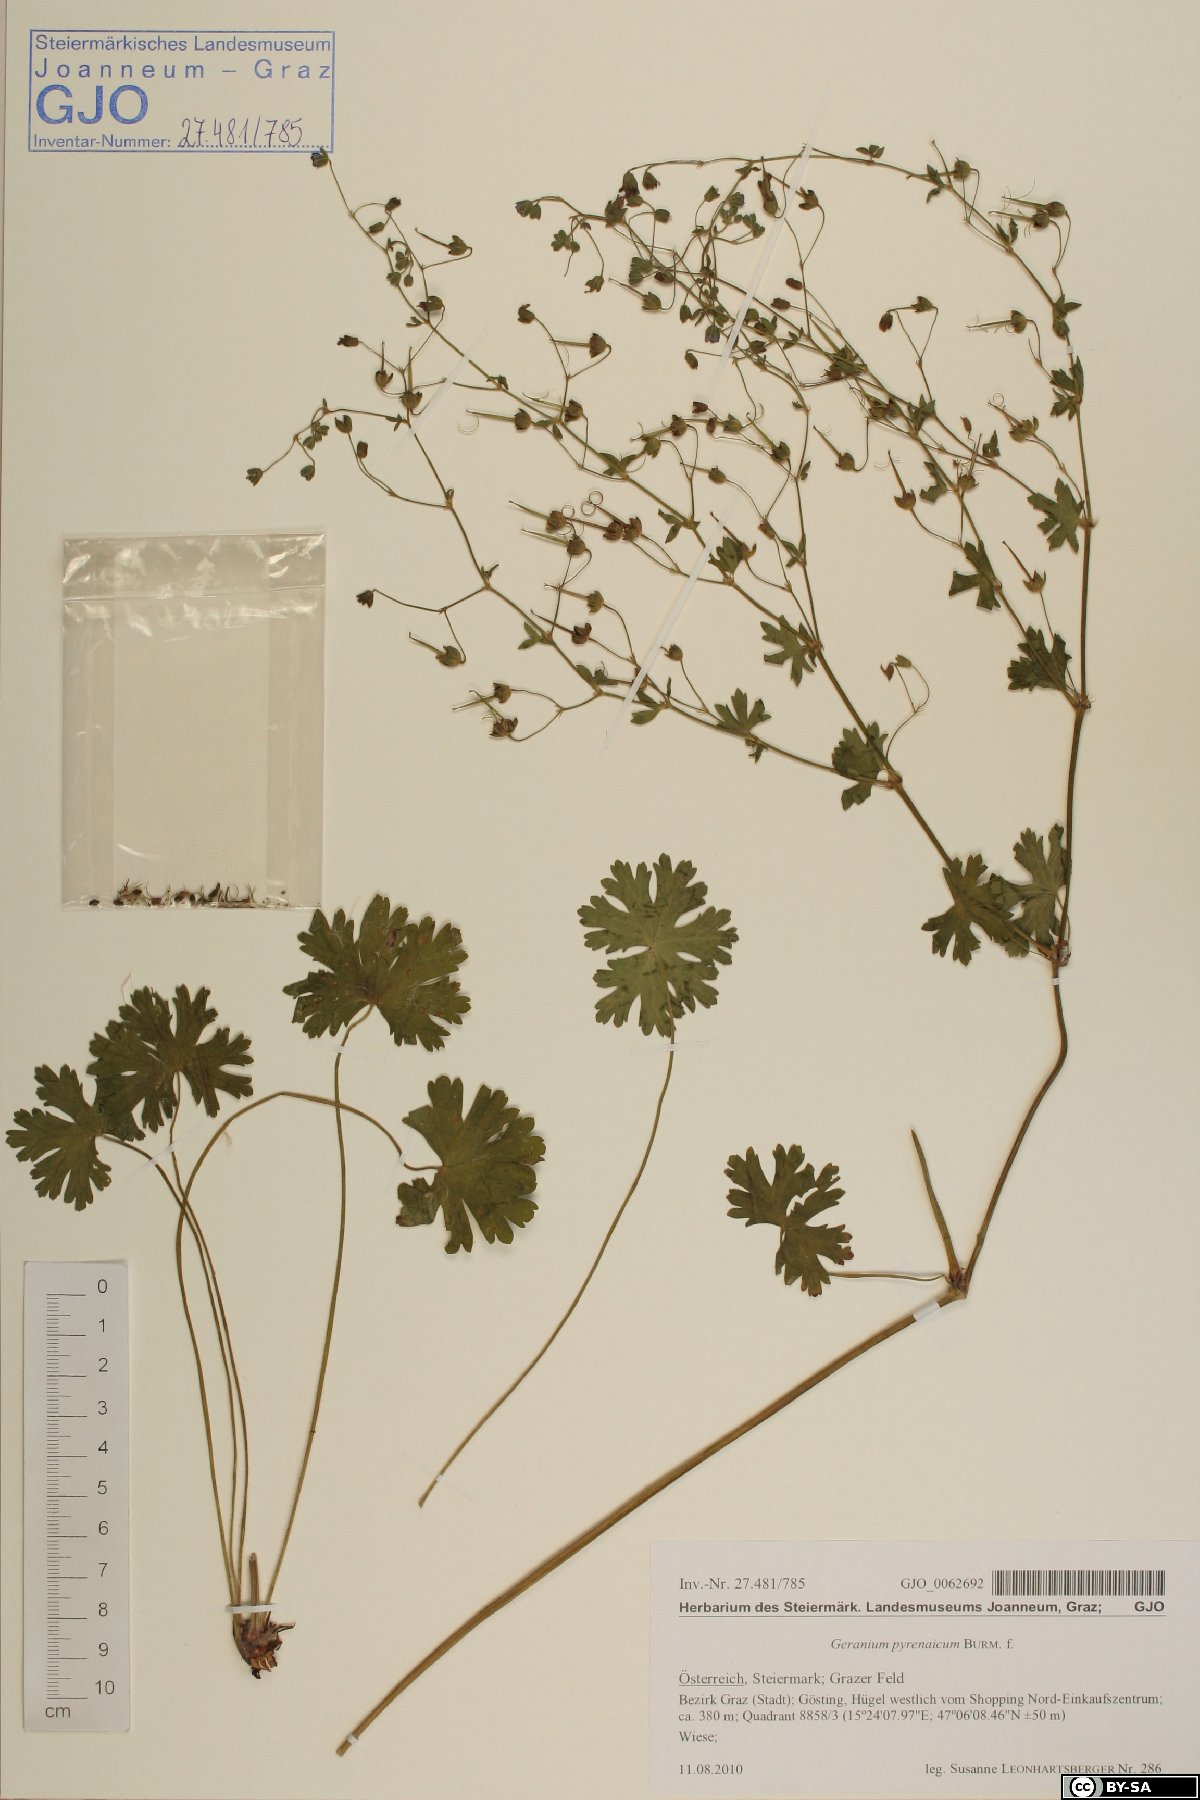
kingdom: Plantae
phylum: Tracheophyta
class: Magnoliopsida
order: Geraniales
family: Geraniaceae
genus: Geranium
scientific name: Geranium pyrenaicum
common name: Hedgerow crane's-bill
